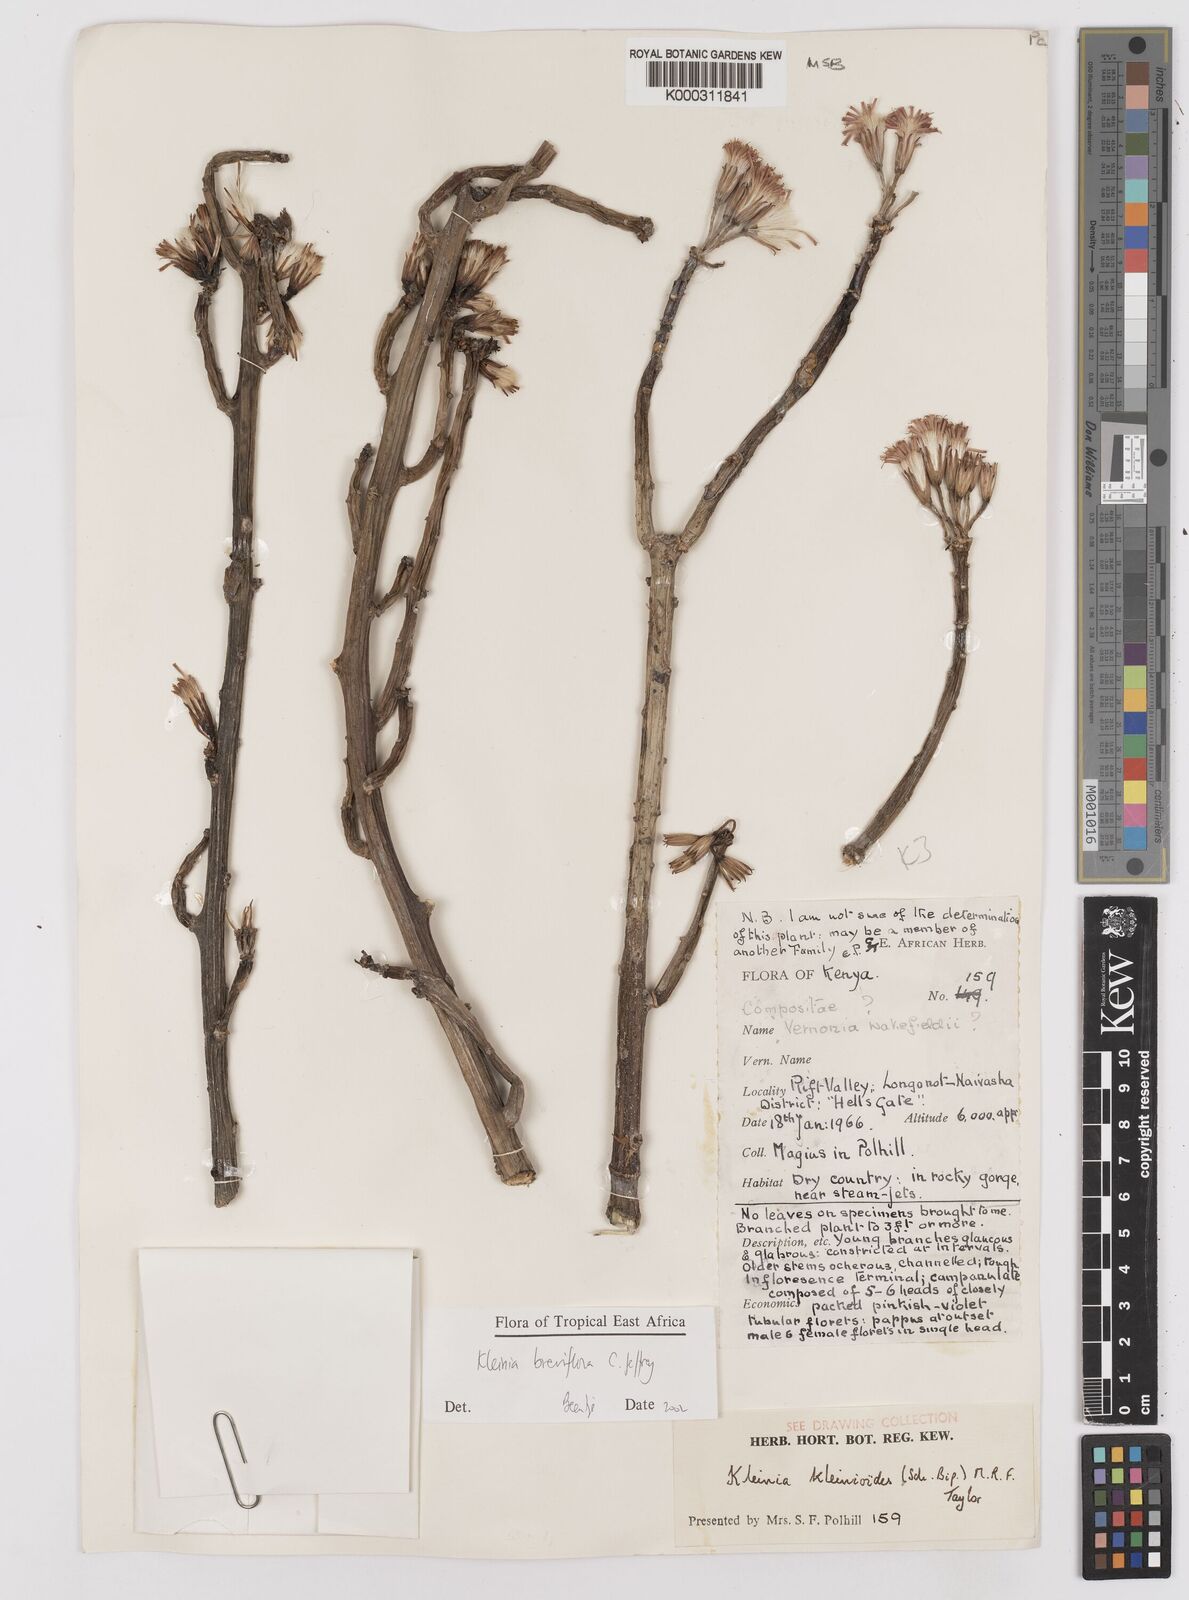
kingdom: Plantae
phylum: Tracheophyta
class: Magnoliopsida
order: Asterales
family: Asteraceae
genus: Kleinia
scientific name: Kleinia polycotoma
